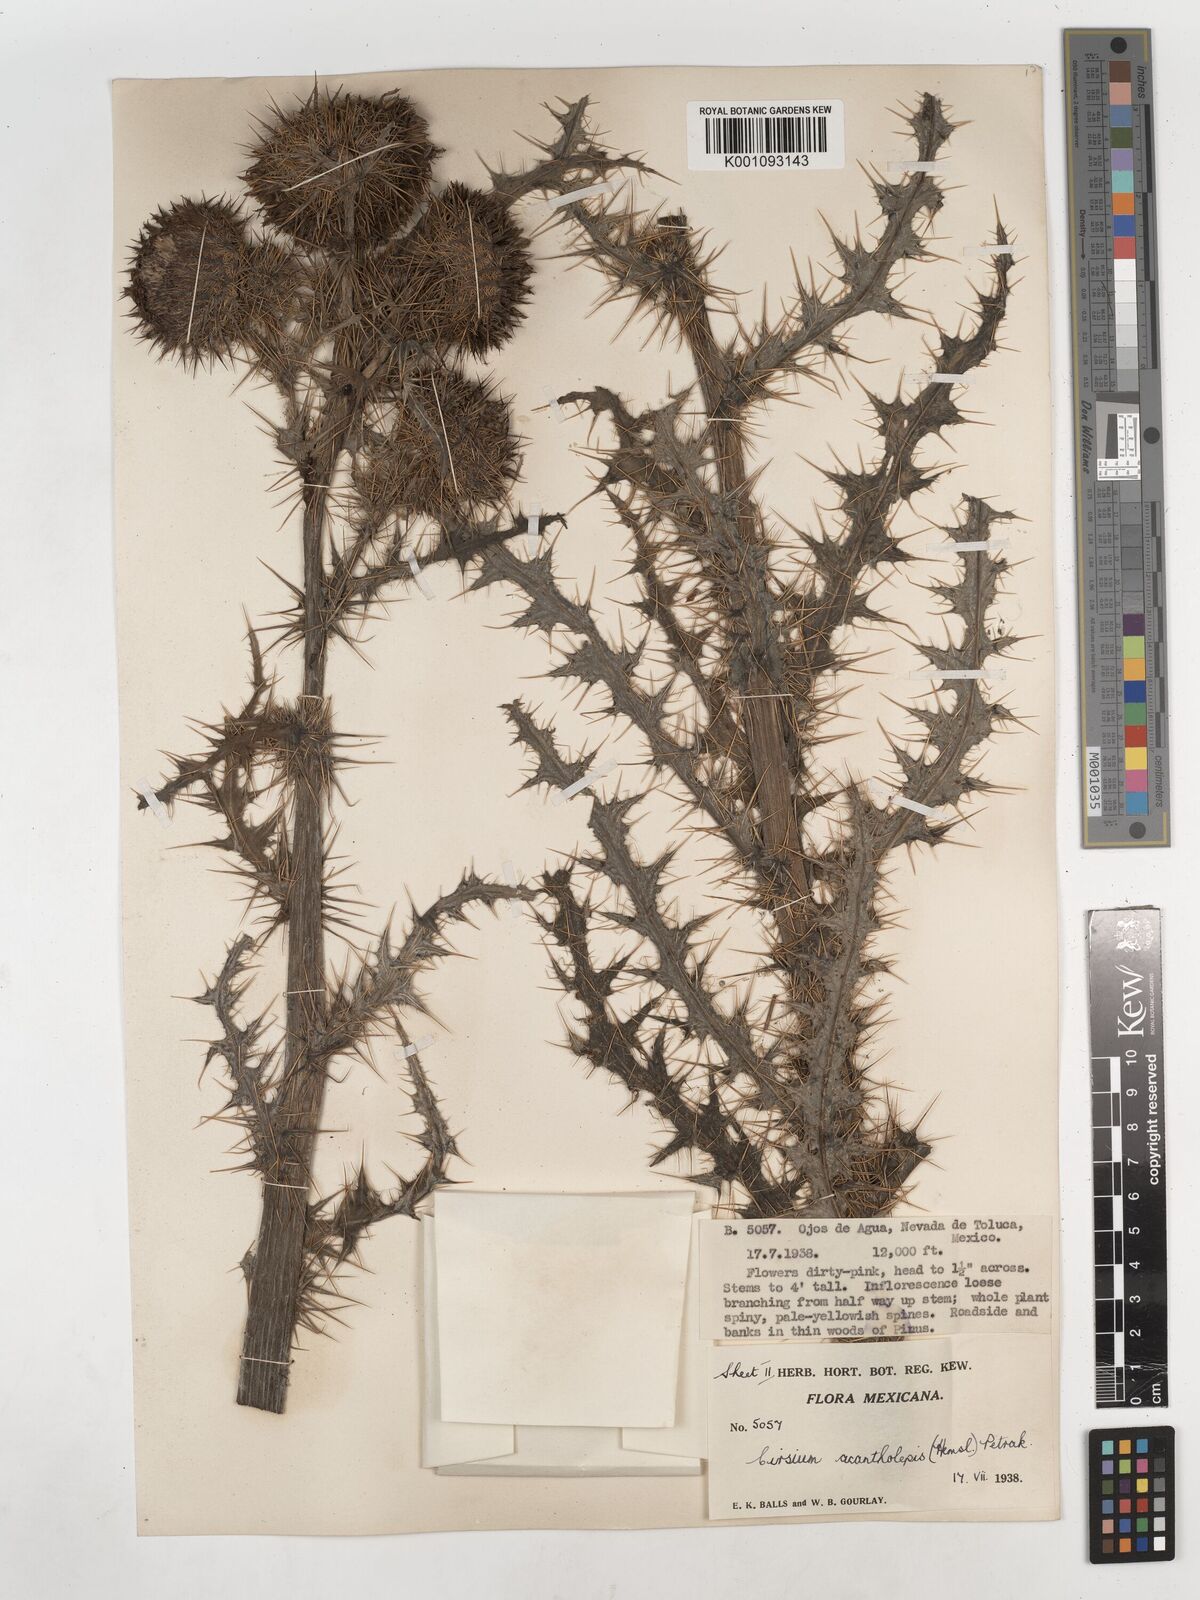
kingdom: Plantae
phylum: Tracheophyta
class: Magnoliopsida
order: Asterales
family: Asteraceae
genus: Cirsium
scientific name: Cirsium jorullense
